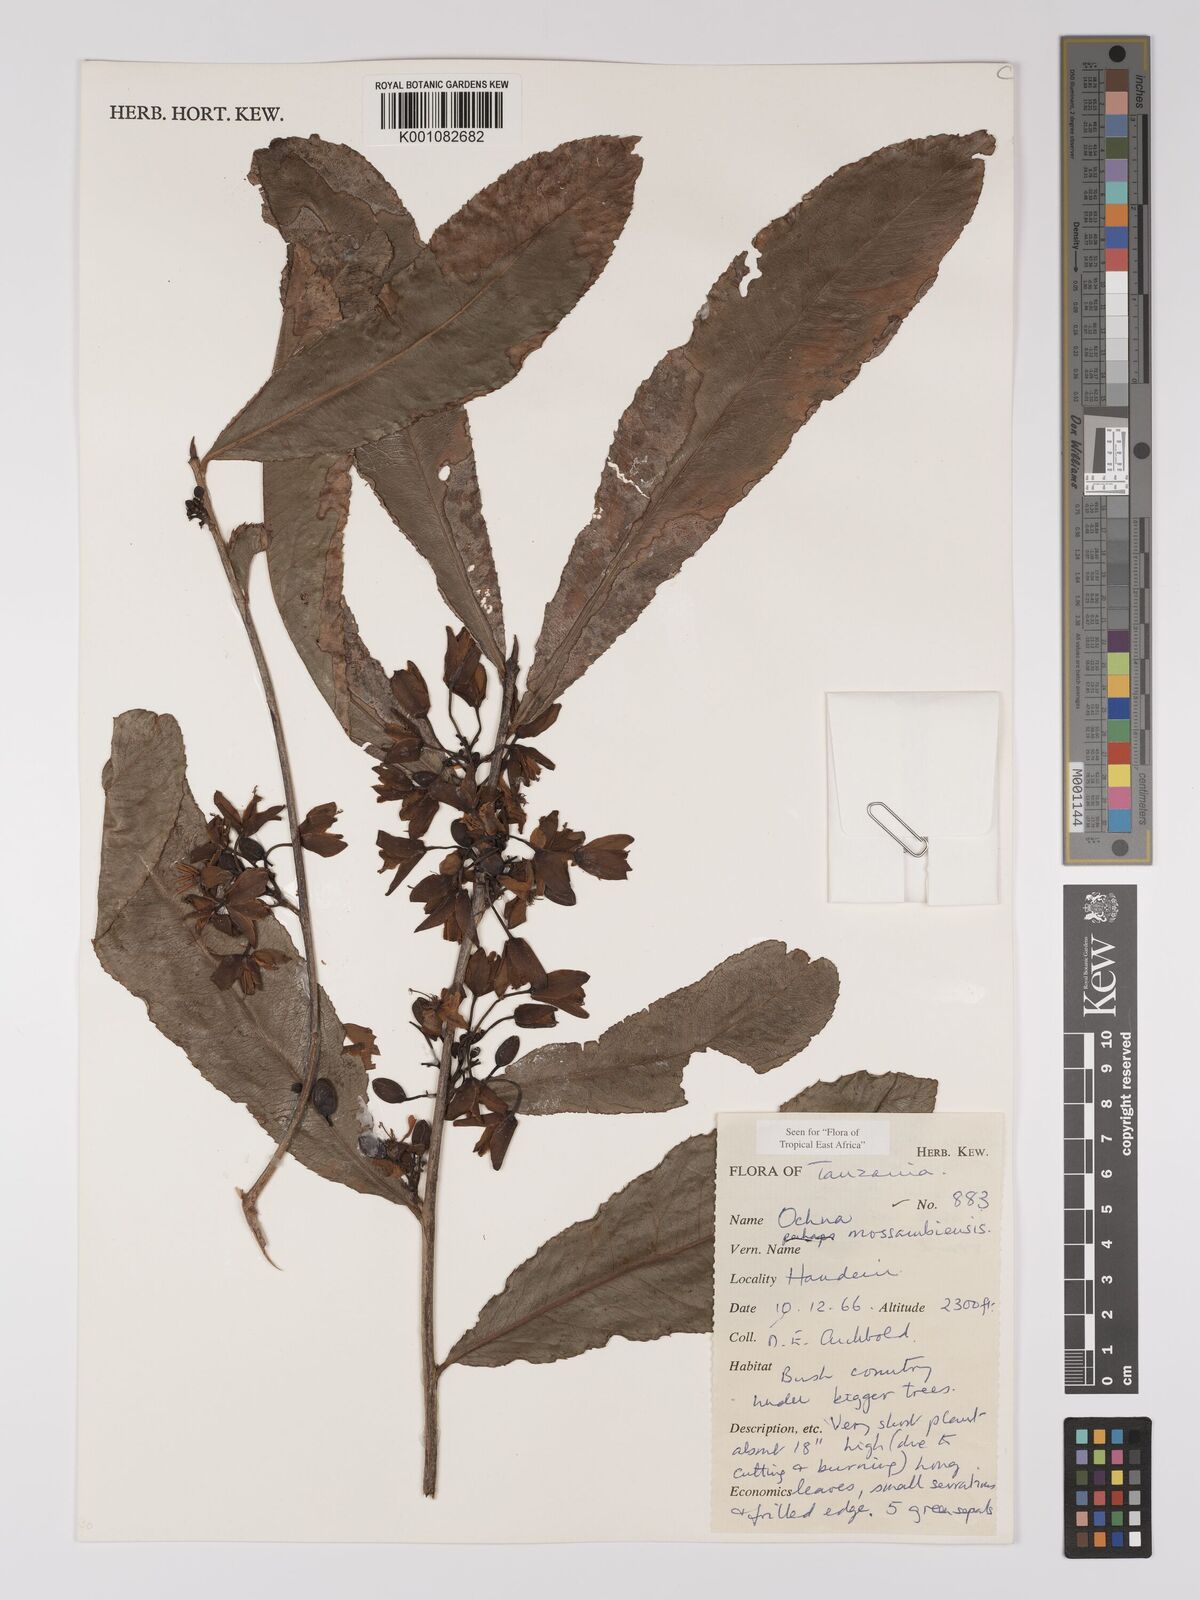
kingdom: Plantae
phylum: Tracheophyta
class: Magnoliopsida
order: Malpighiales
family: Ochnaceae
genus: Ochna
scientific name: Ochna atropurpurea
